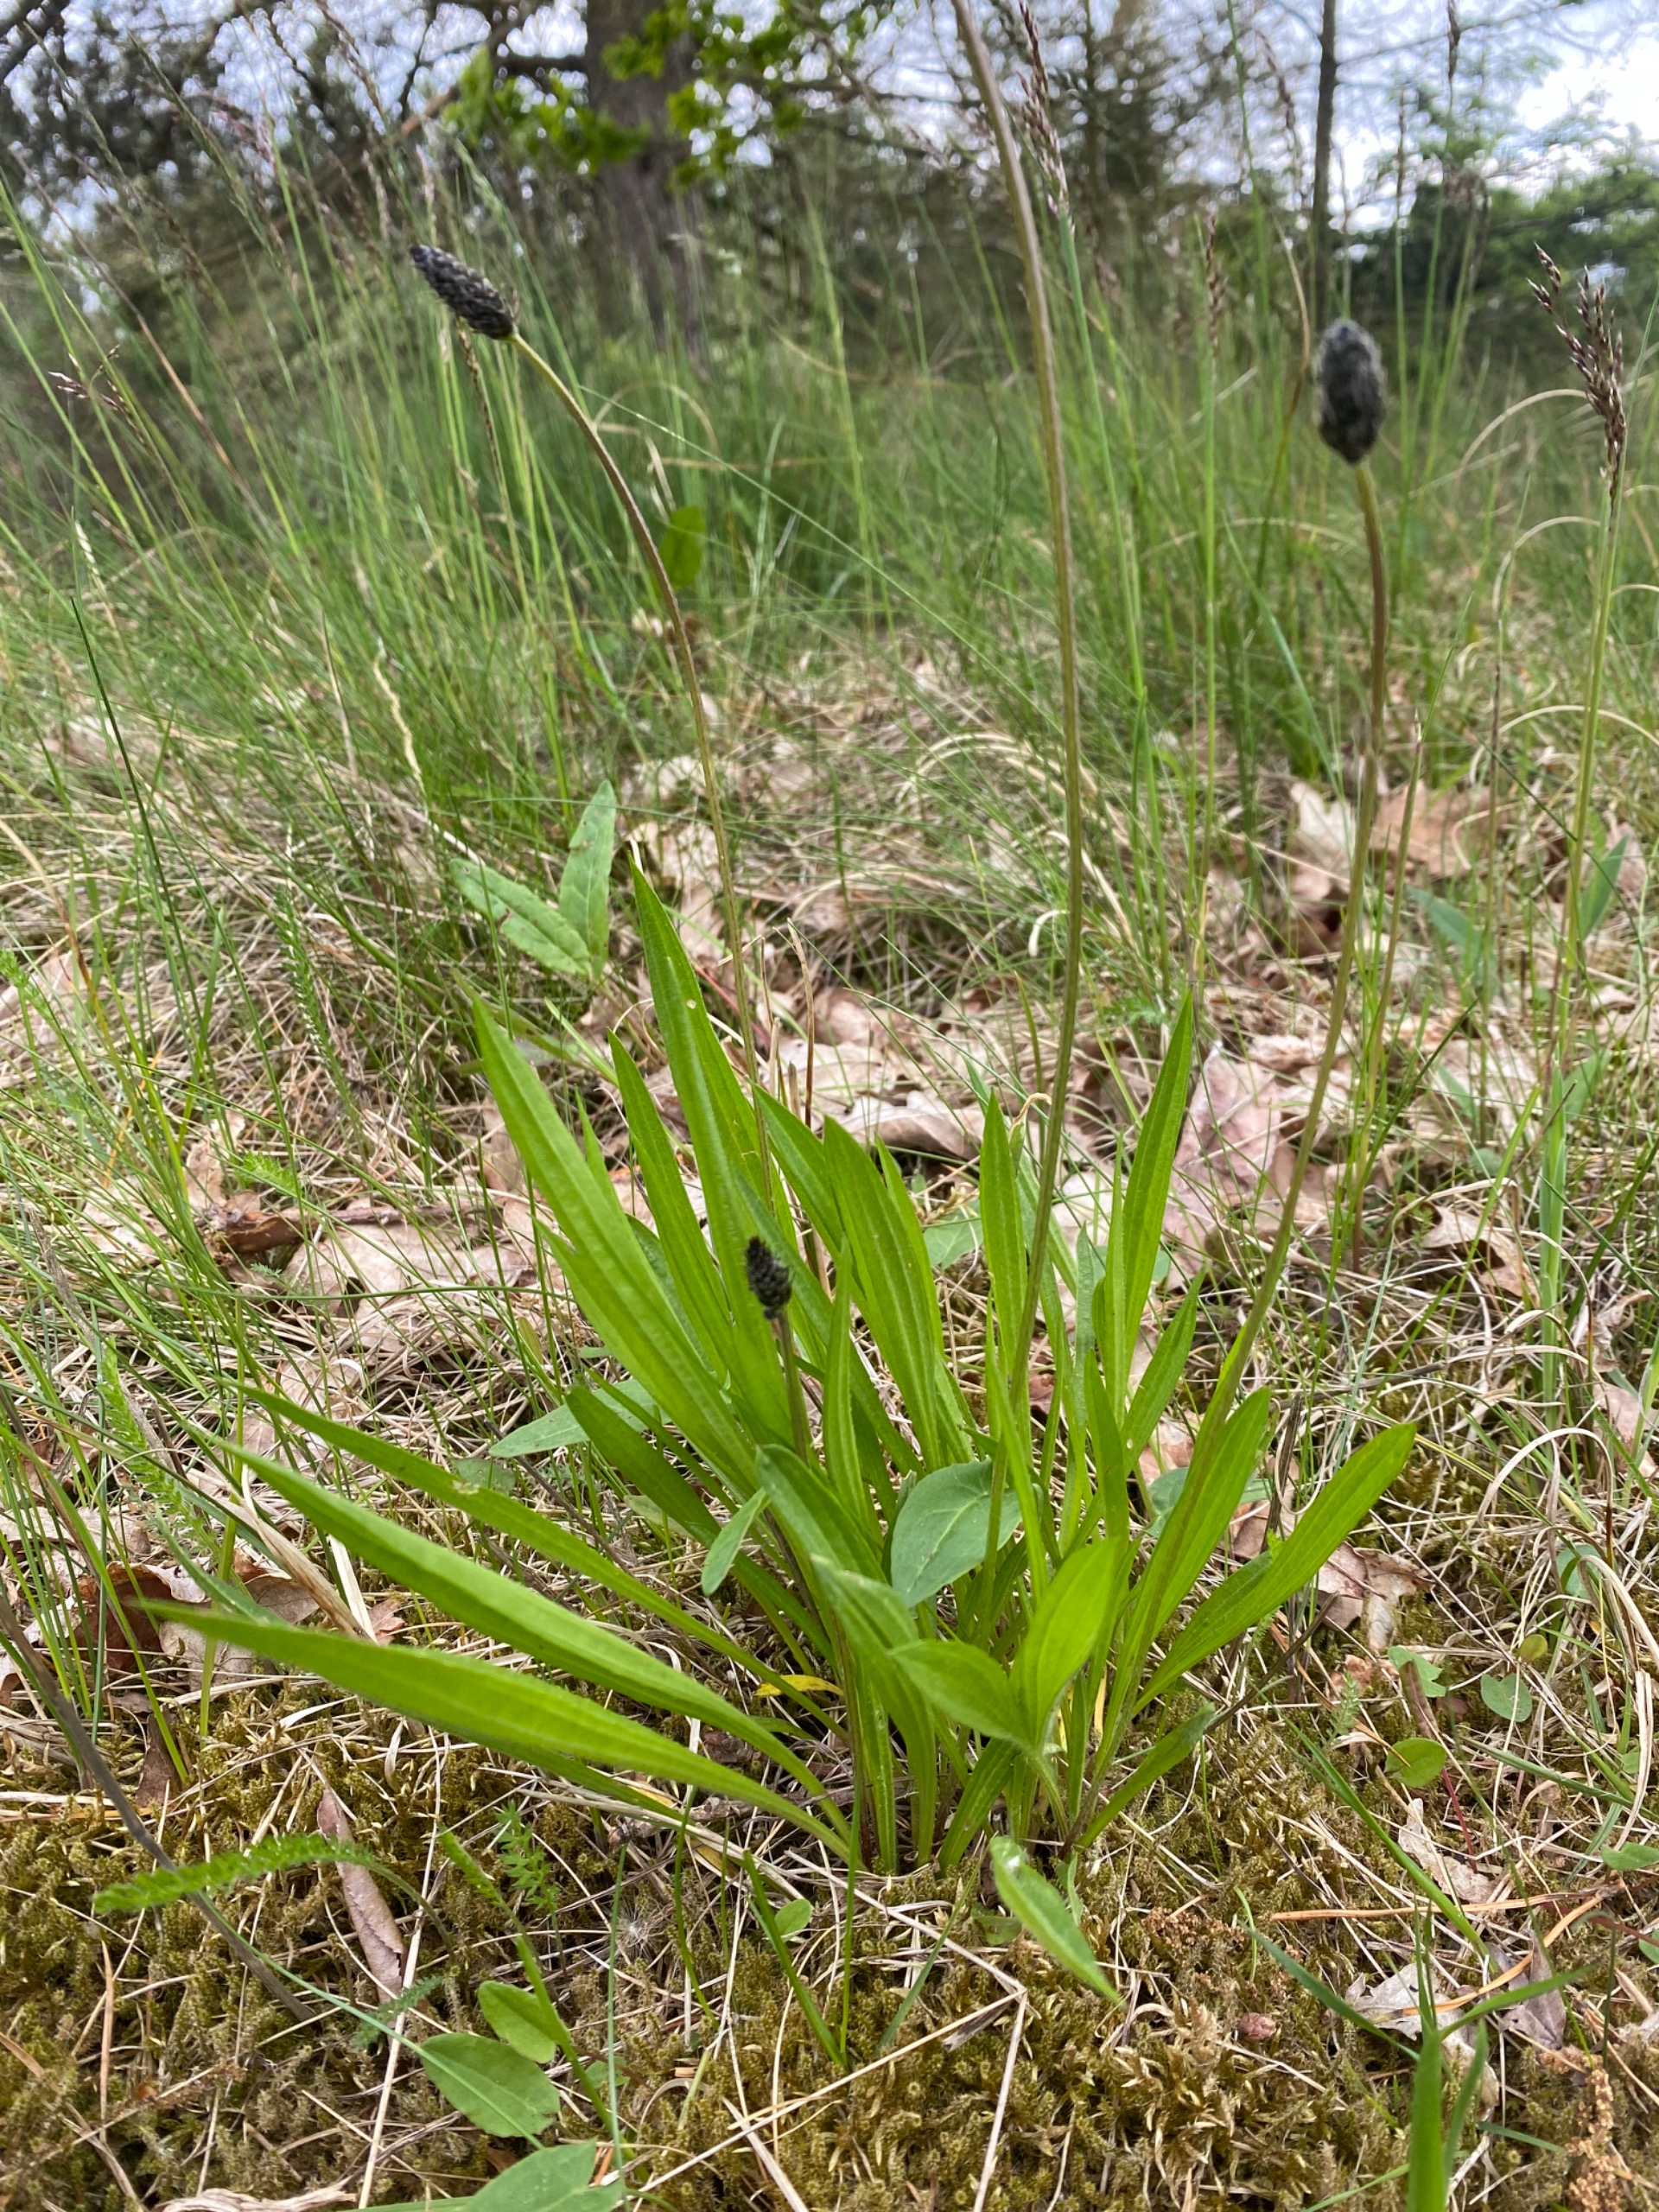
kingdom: Plantae
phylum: Tracheophyta
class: Magnoliopsida
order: Lamiales
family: Plantaginaceae
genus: Plantago
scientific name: Plantago lanceolata
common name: Lancet-vejbred
